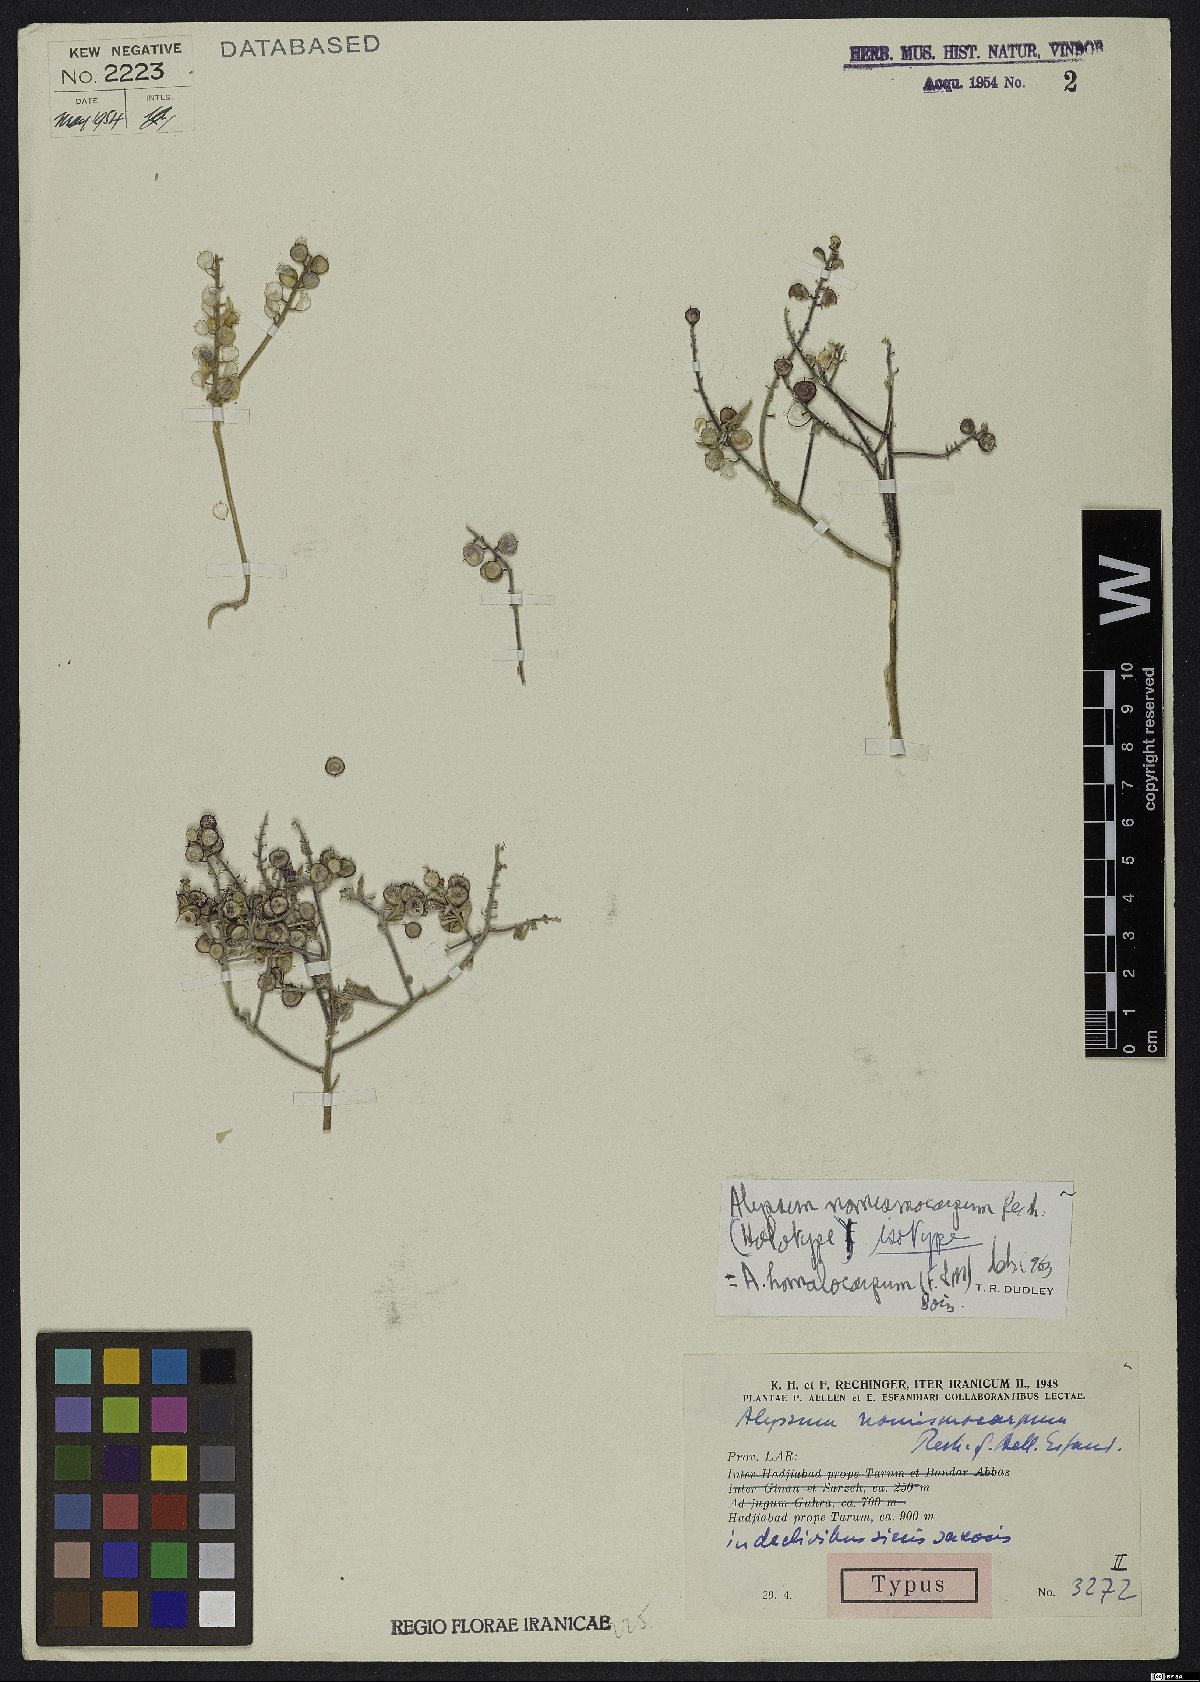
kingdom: Plantae
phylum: Tracheophyta
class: Magnoliopsida
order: Brassicales
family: Brassicaceae
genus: Cuprella
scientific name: Cuprella homalocarpa
